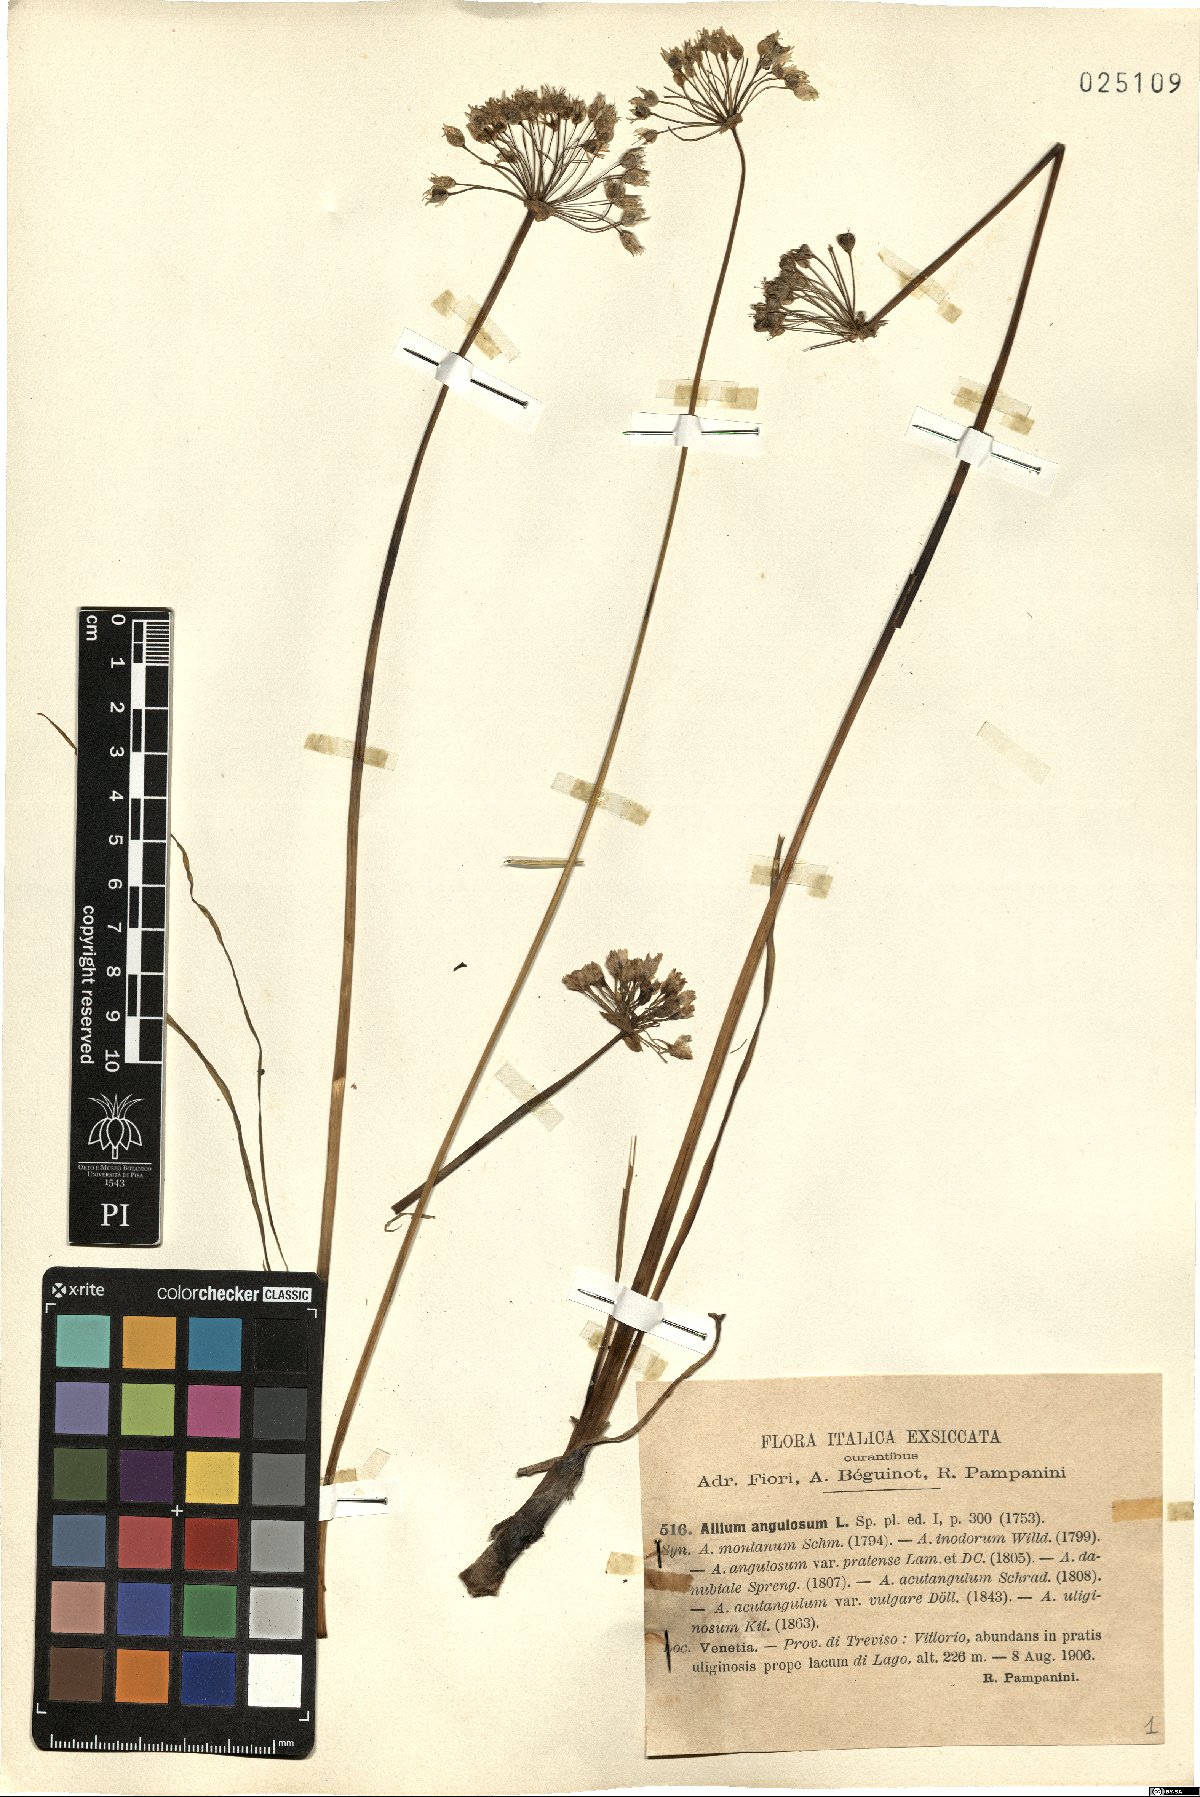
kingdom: Plantae
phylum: Tracheophyta
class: Liliopsida
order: Asparagales
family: Amaryllidaceae
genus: Allium
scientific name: Allium angulosum
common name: Mouse garlic
